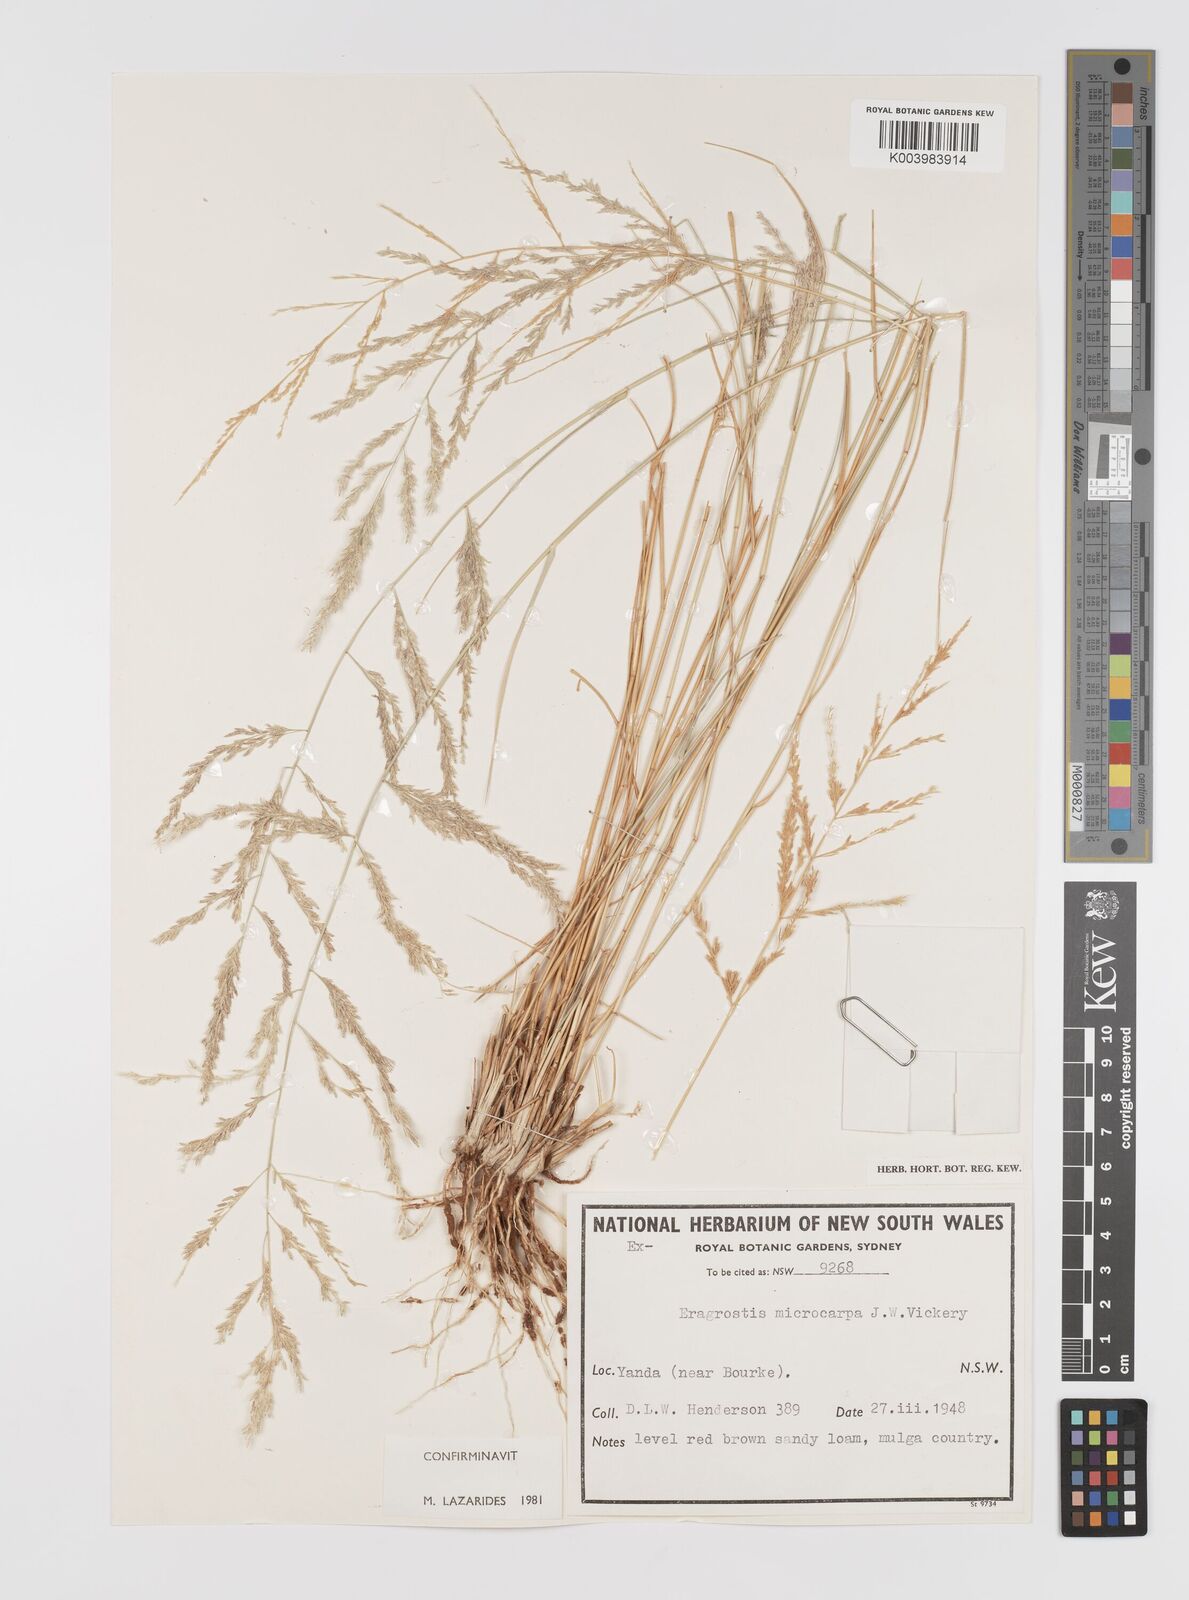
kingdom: Plantae
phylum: Tracheophyta
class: Liliopsida
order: Poales
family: Poaceae
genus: Eragrostis
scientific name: Eragrostis microcarpa
